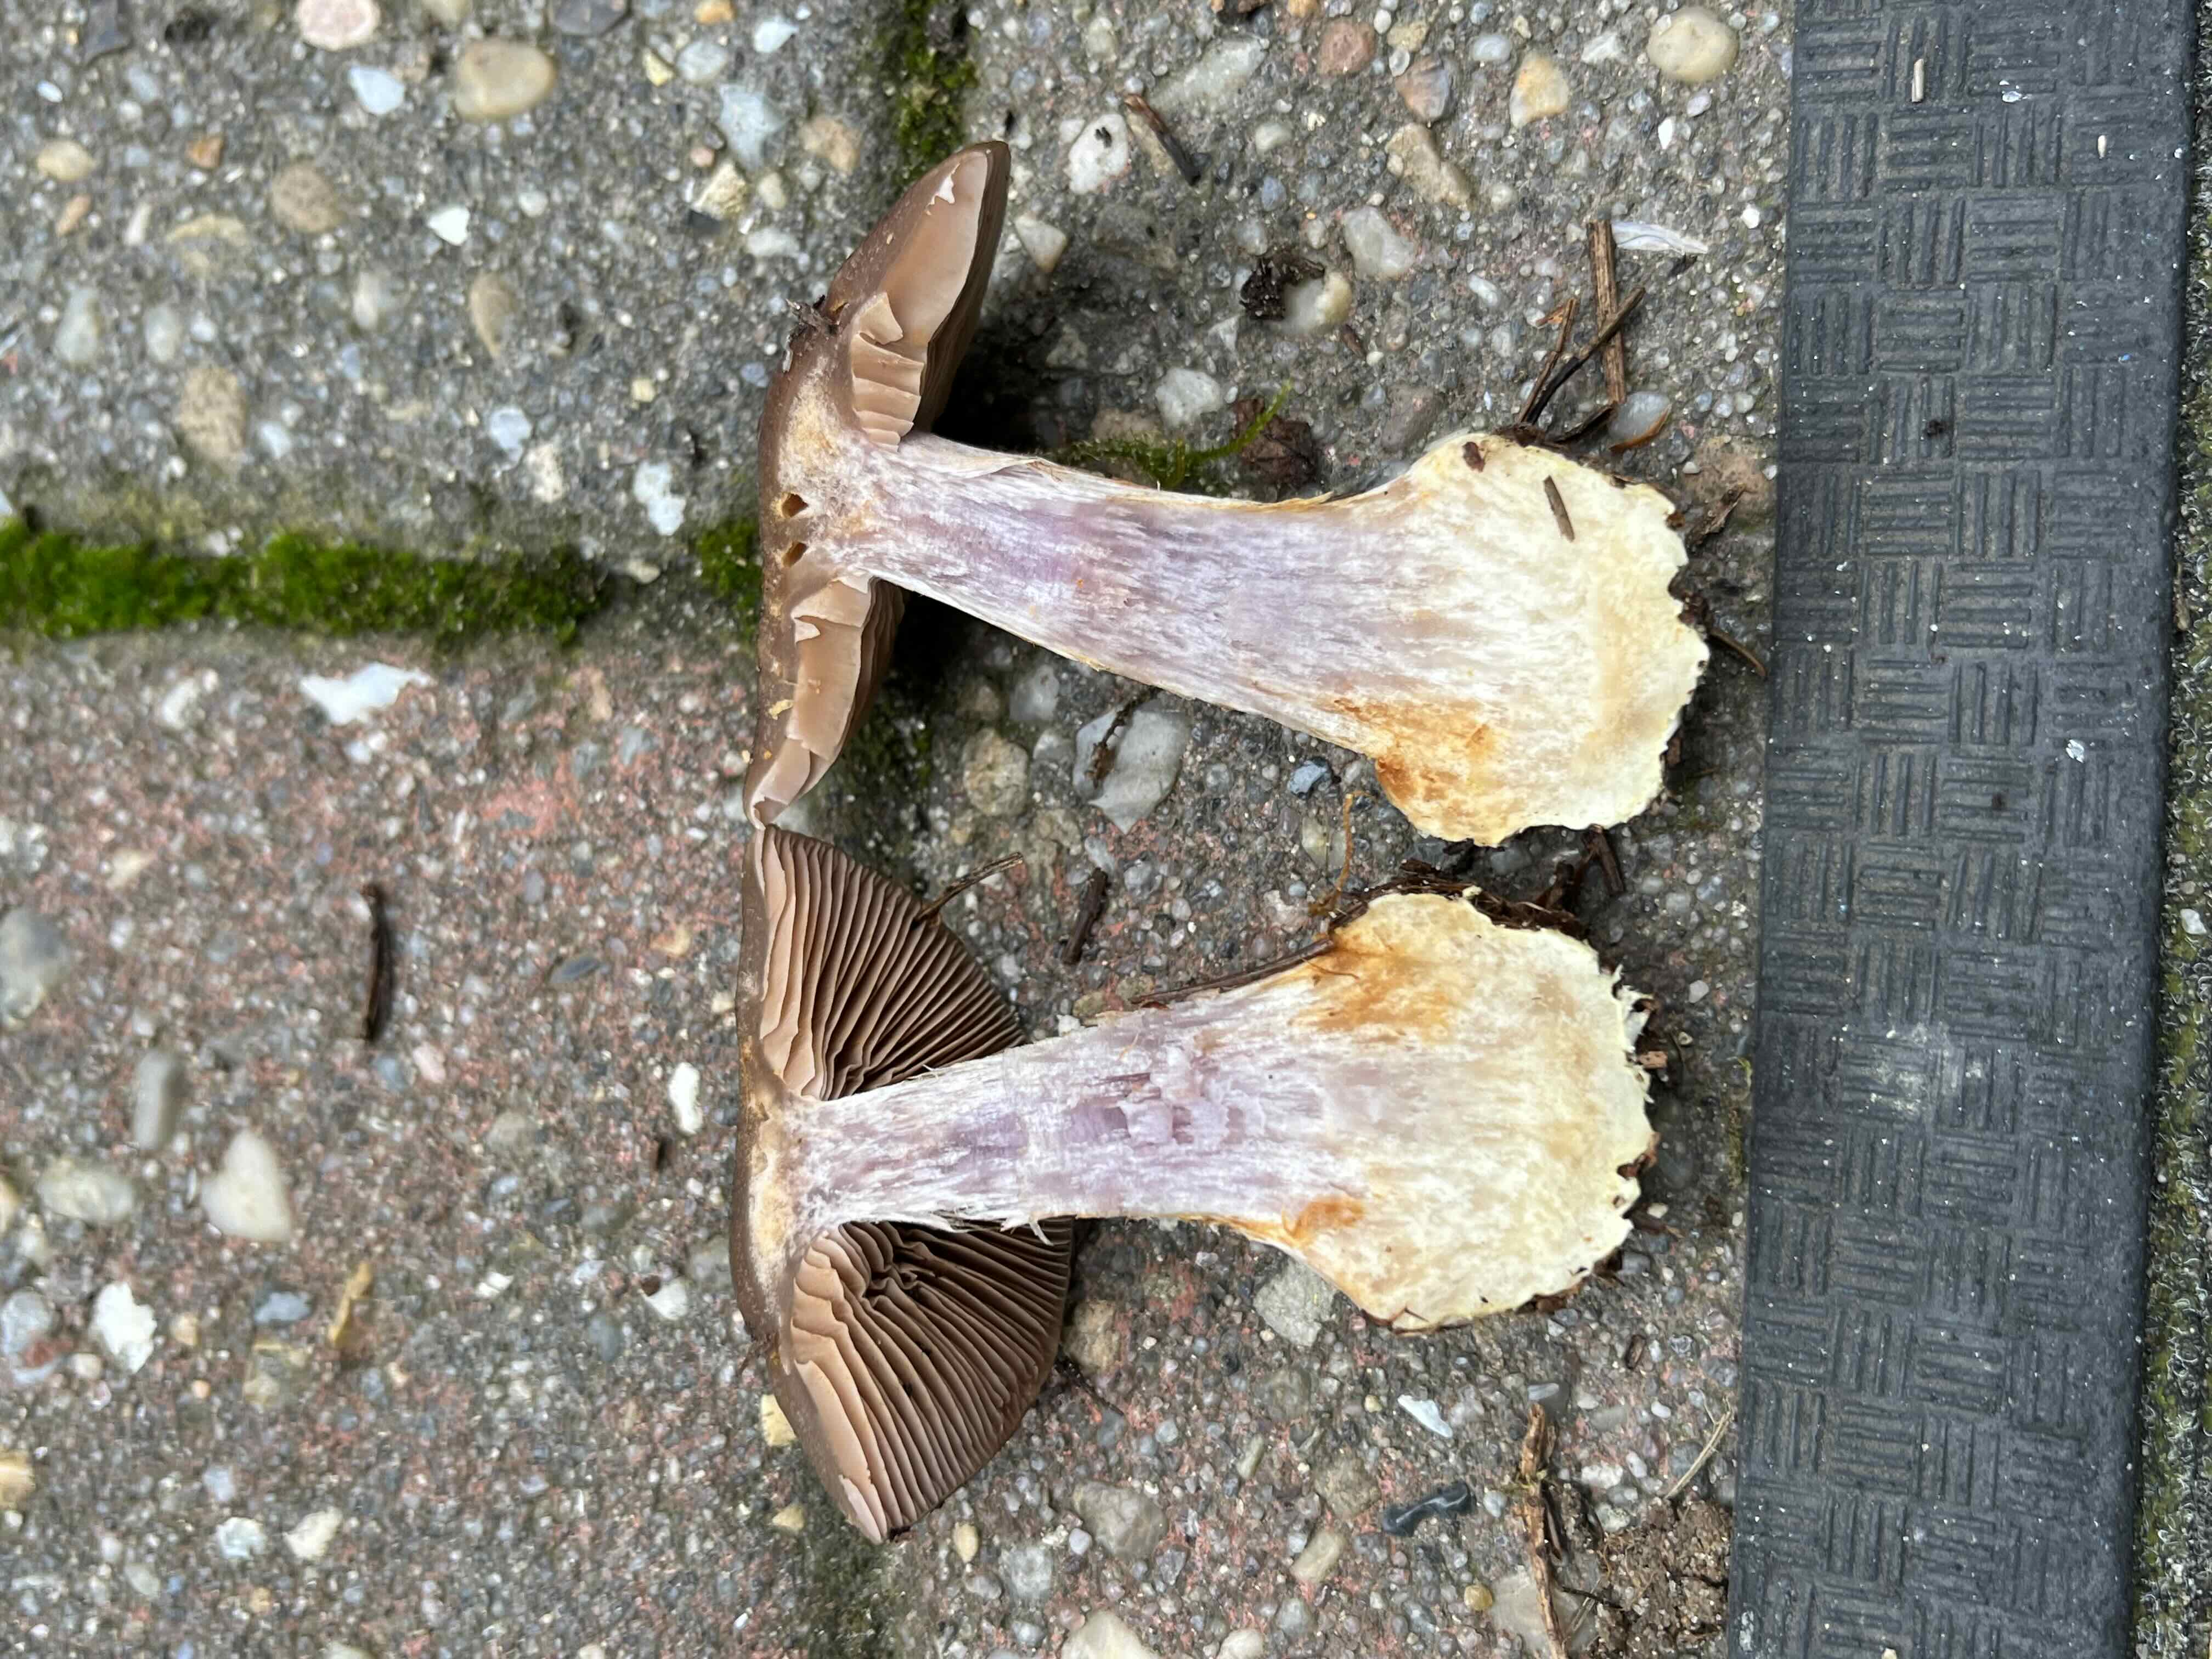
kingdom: Fungi
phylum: Basidiomycota
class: Agaricomycetes
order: Agaricales
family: Cortinariaceae
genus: Thaxterogaster
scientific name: Thaxterogaster sphagnophilus
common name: vandplettet slørhat
